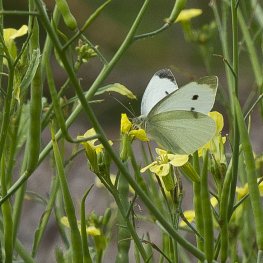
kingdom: Animalia
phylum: Arthropoda
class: Insecta
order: Lepidoptera
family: Pieridae
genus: Pieris
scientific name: Pieris rapae
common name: Cabbage White
